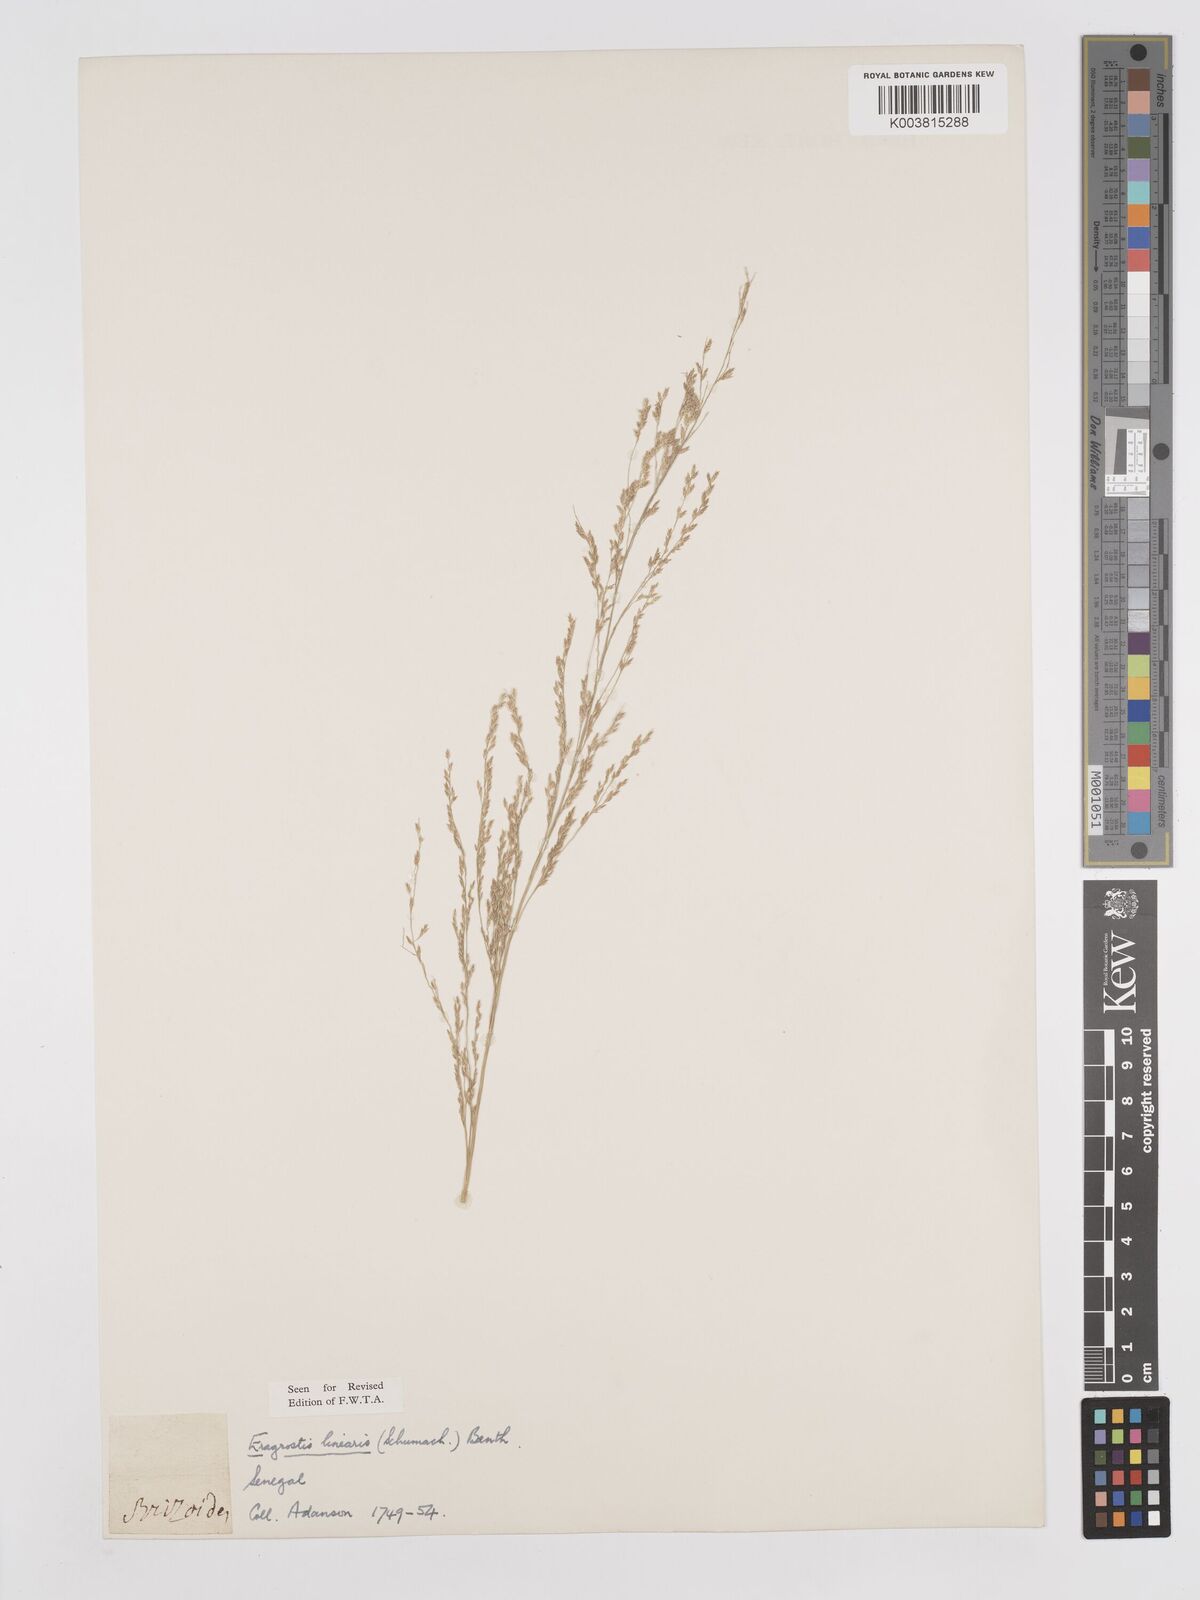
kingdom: Plantae
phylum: Tracheophyta
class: Liliopsida
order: Poales
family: Poaceae
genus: Eragrostis
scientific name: Eragrostis prolifera
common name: Dominican lovegrass
